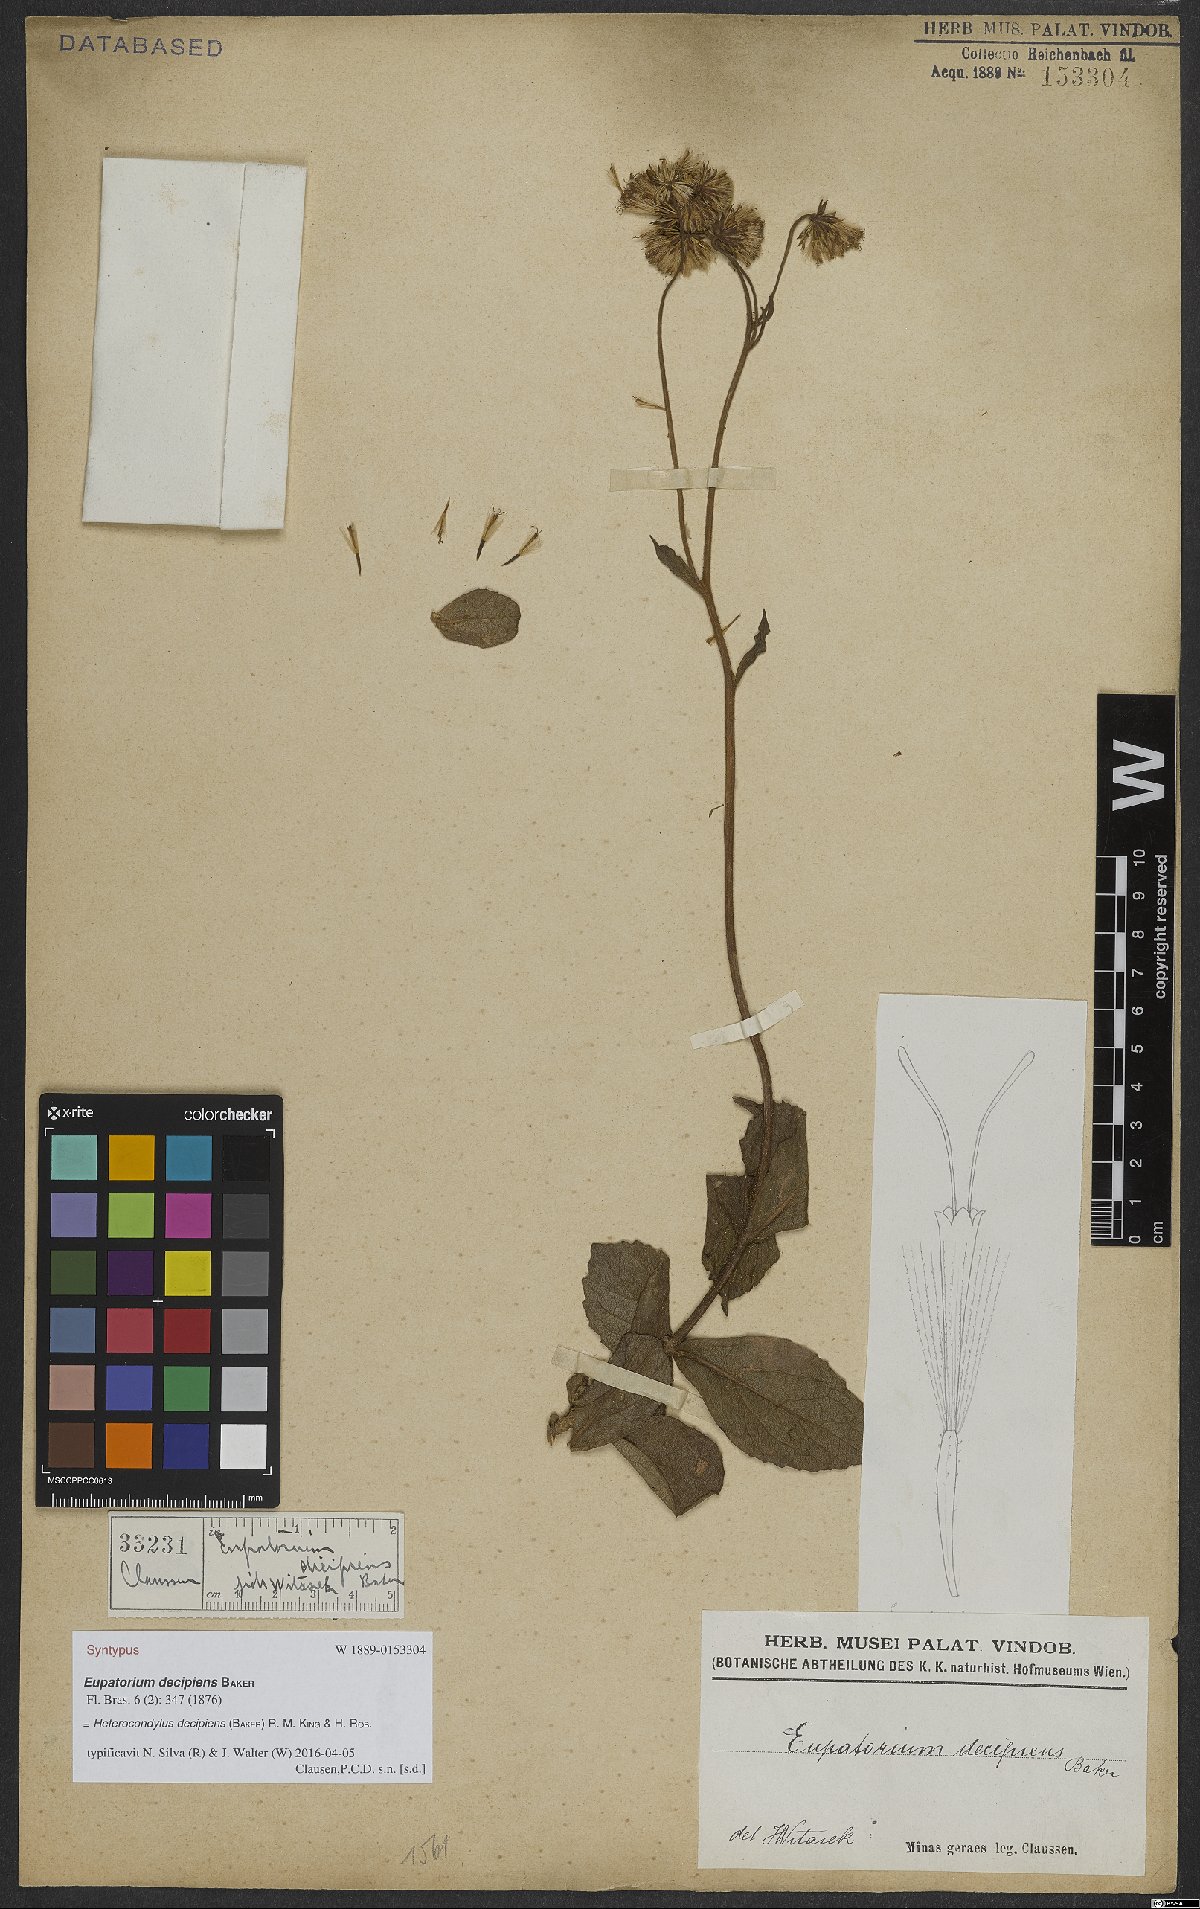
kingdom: Plantae
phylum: Tracheophyta
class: Magnoliopsida
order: Asterales
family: Asteraceae
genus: Heterocondylus
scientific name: Heterocondylus decipiens
